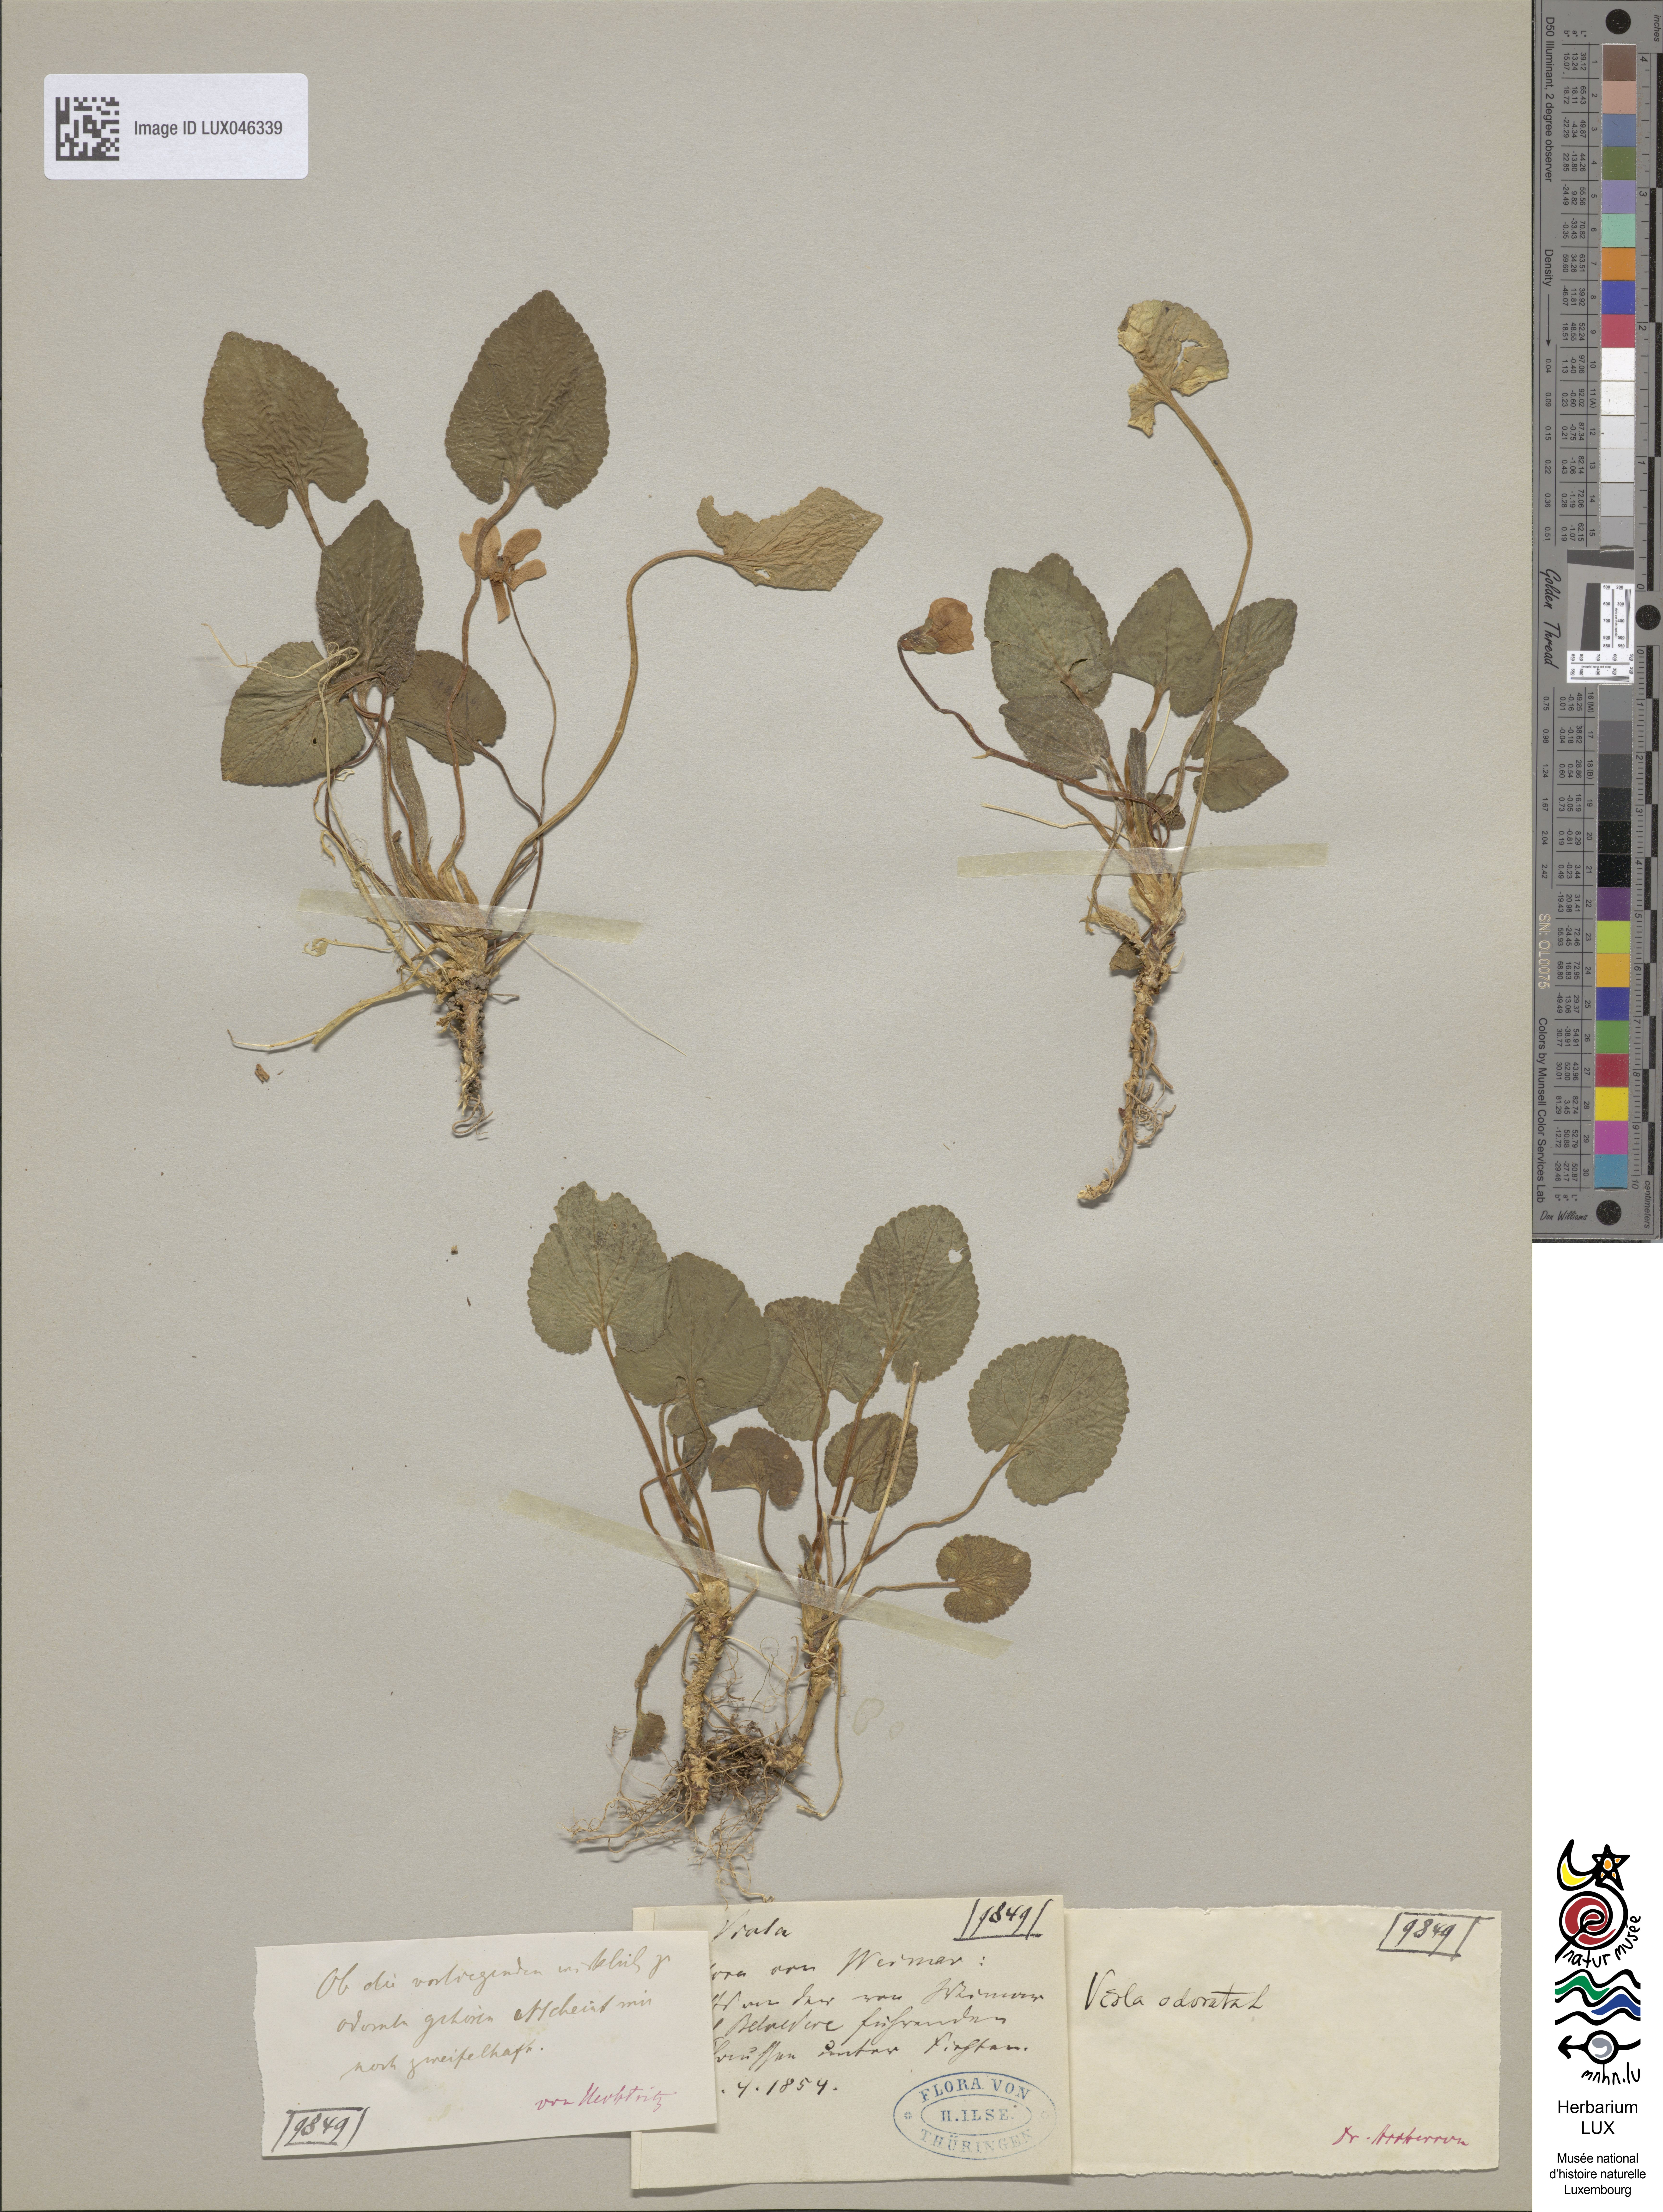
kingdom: Plantae
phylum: Tracheophyta
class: Magnoliopsida
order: Malpighiales
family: Violaceae
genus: Viola
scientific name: Viola odorata
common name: Sweet violet
